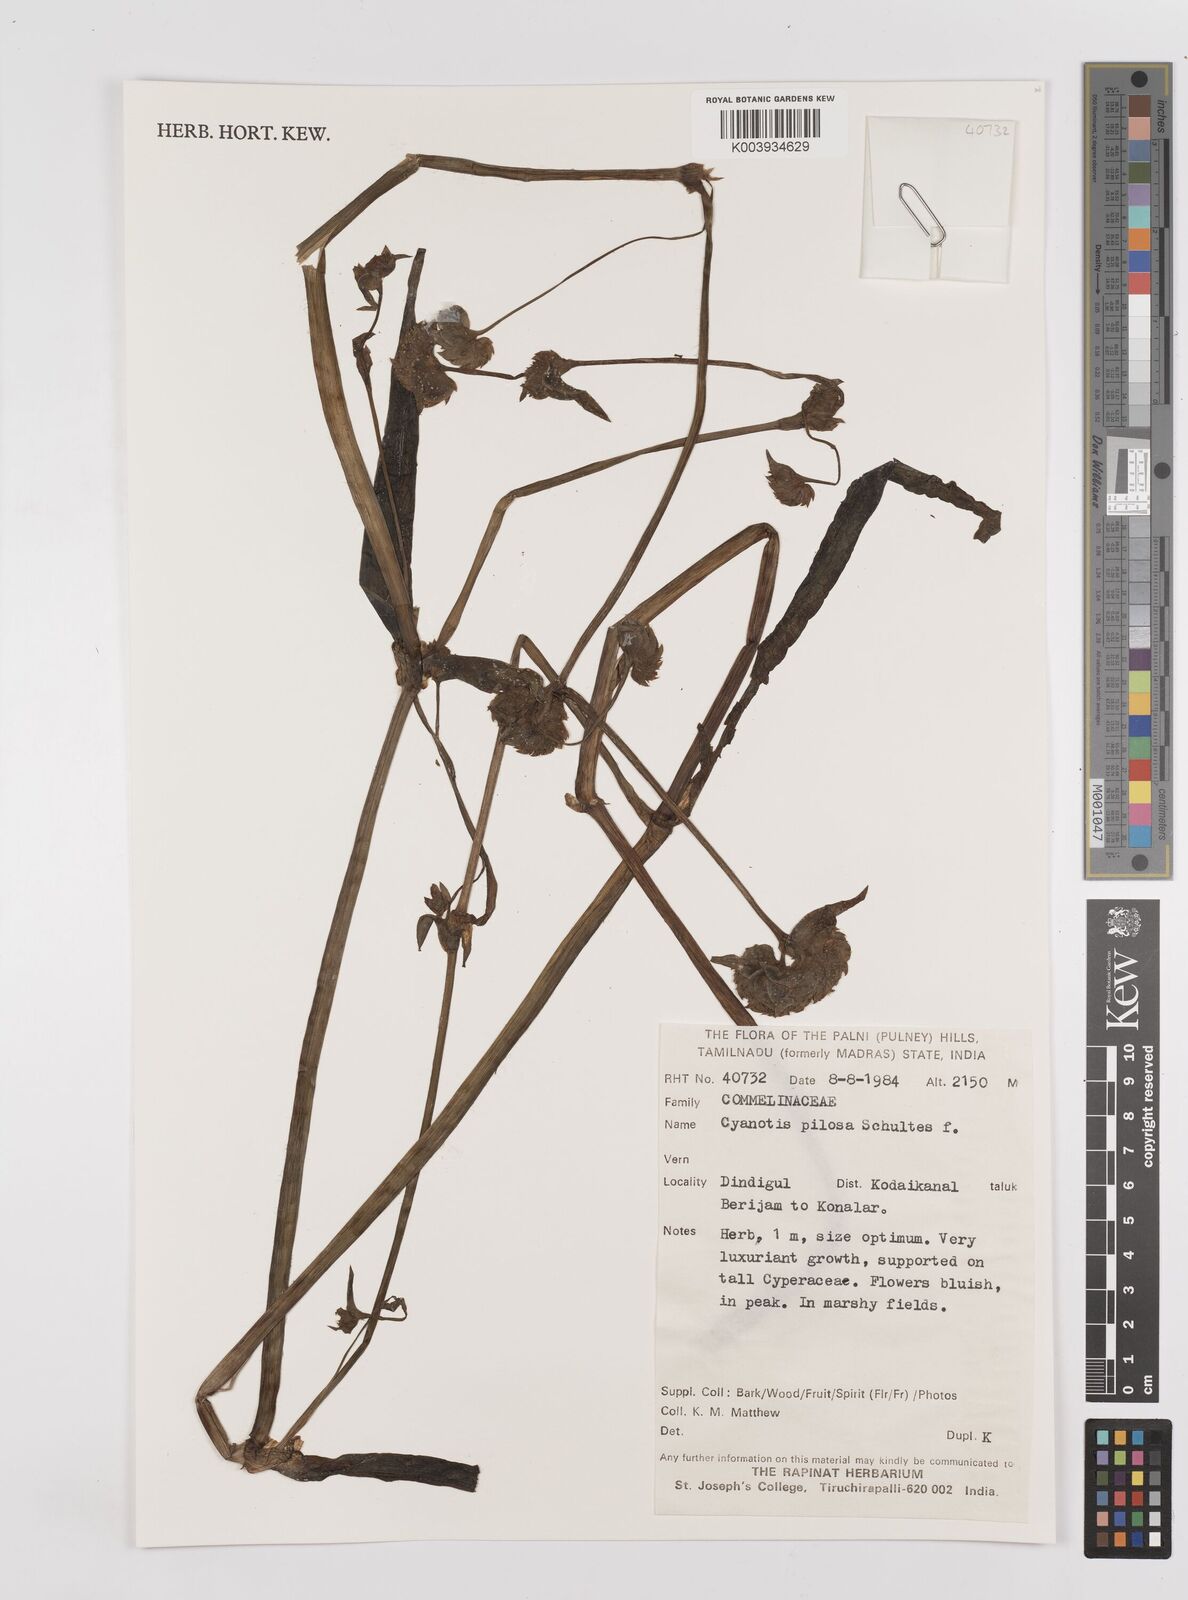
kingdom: Plantae
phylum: Tracheophyta
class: Liliopsida
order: Commelinales
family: Commelinaceae
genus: Cyanotis
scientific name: Cyanotis pilosa
